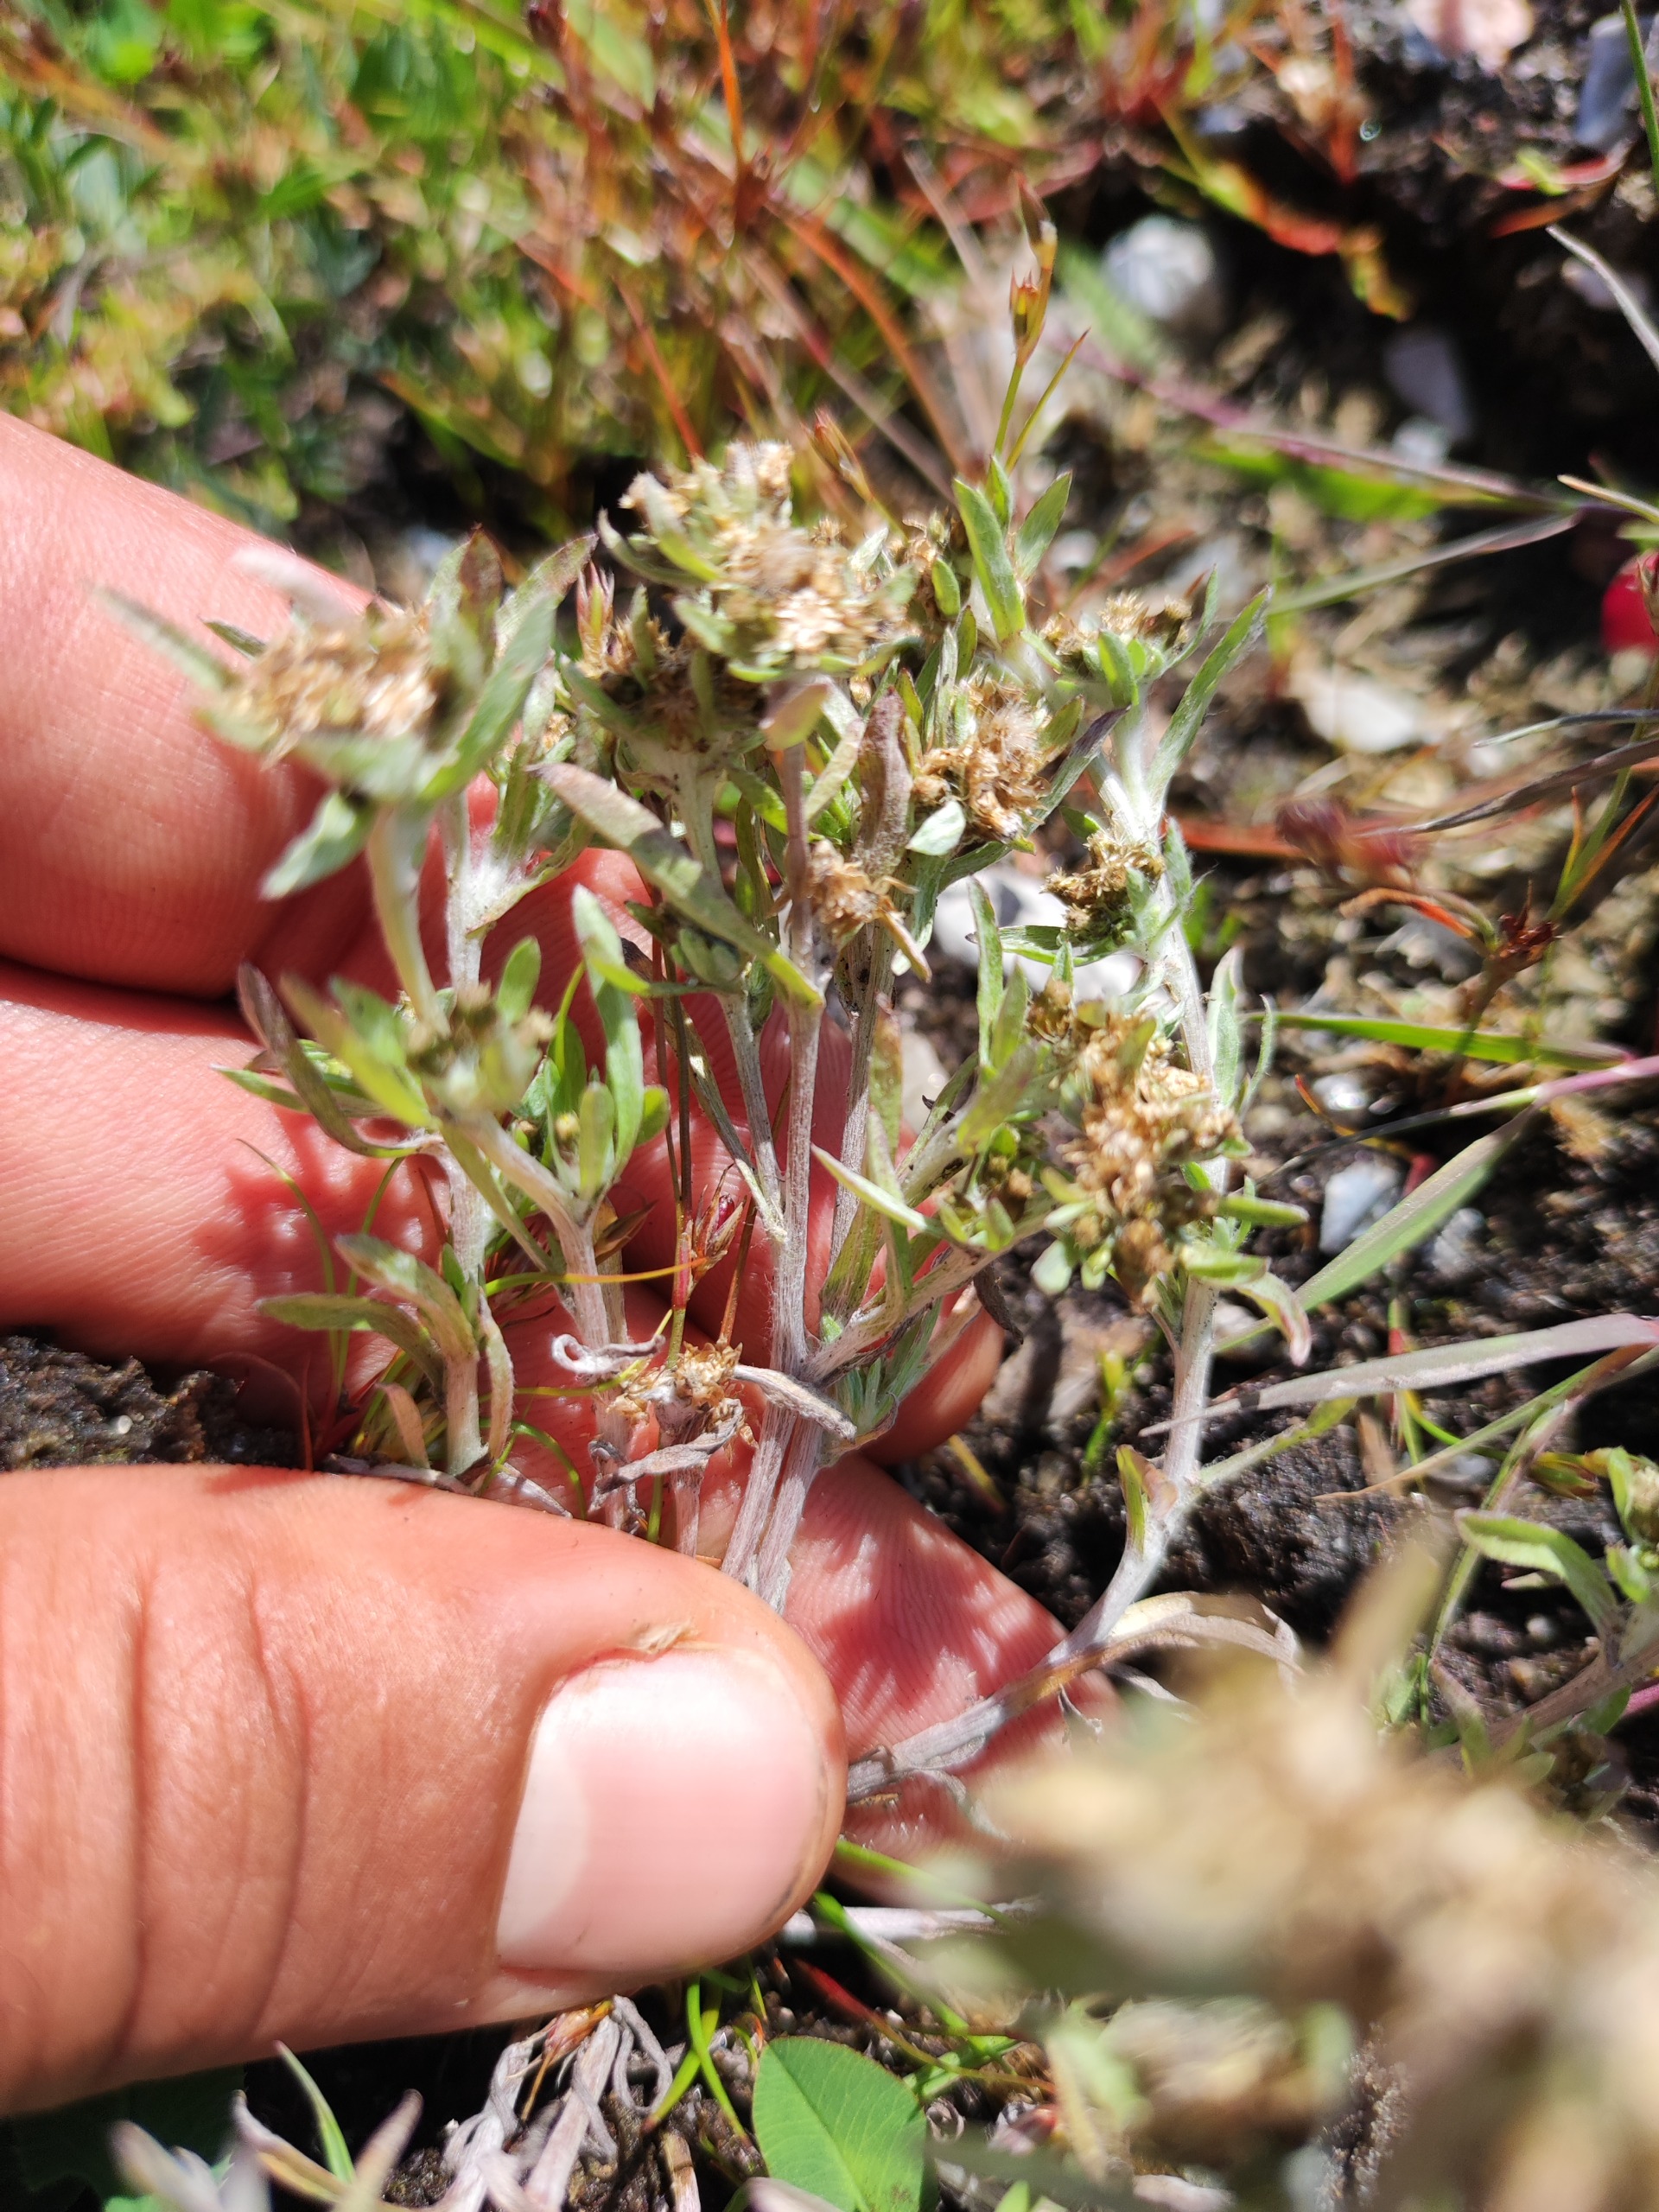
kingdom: Plantae
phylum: Tracheophyta
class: Magnoliopsida
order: Asterales
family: Asteraceae
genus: Gnaphalium
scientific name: Gnaphalium uliginosum
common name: Sump-evighedsblomst
